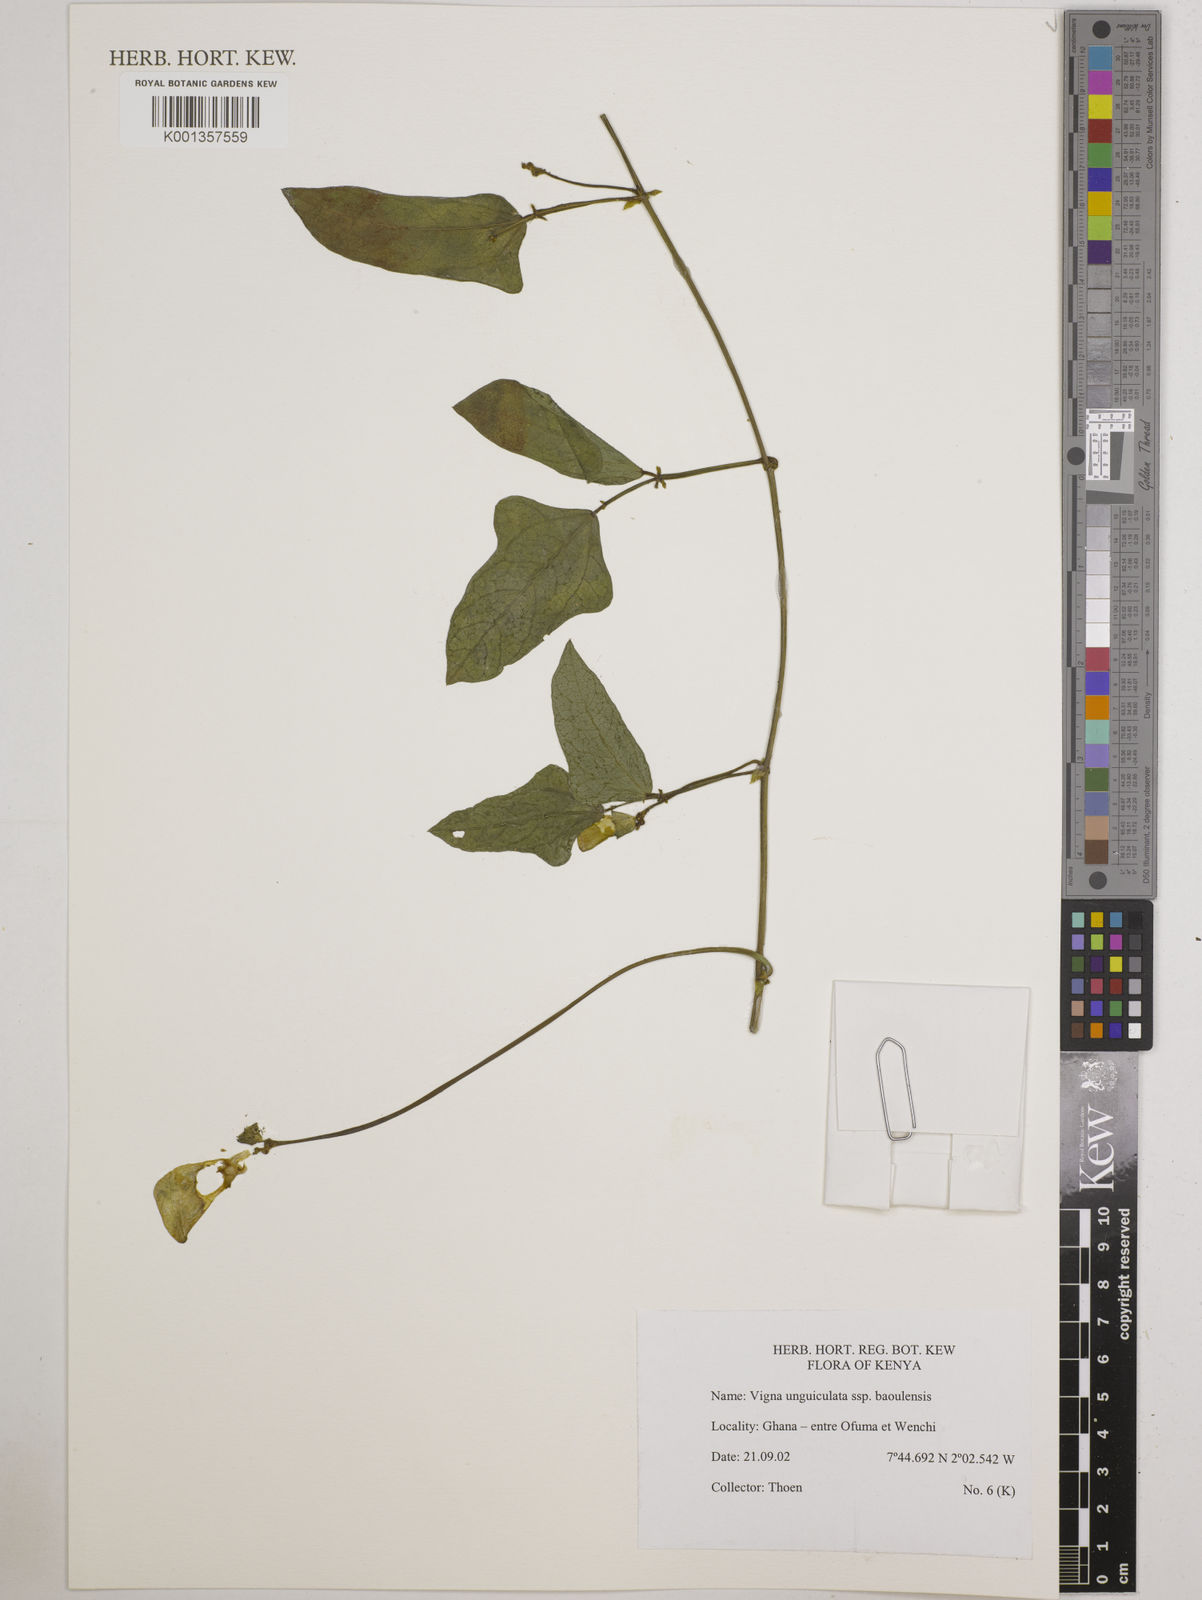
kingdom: Plantae
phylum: Tracheophyta
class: Magnoliopsida
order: Fabales
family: Fabaceae
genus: Vigna
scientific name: Vigna unguiculata
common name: Cowpea
